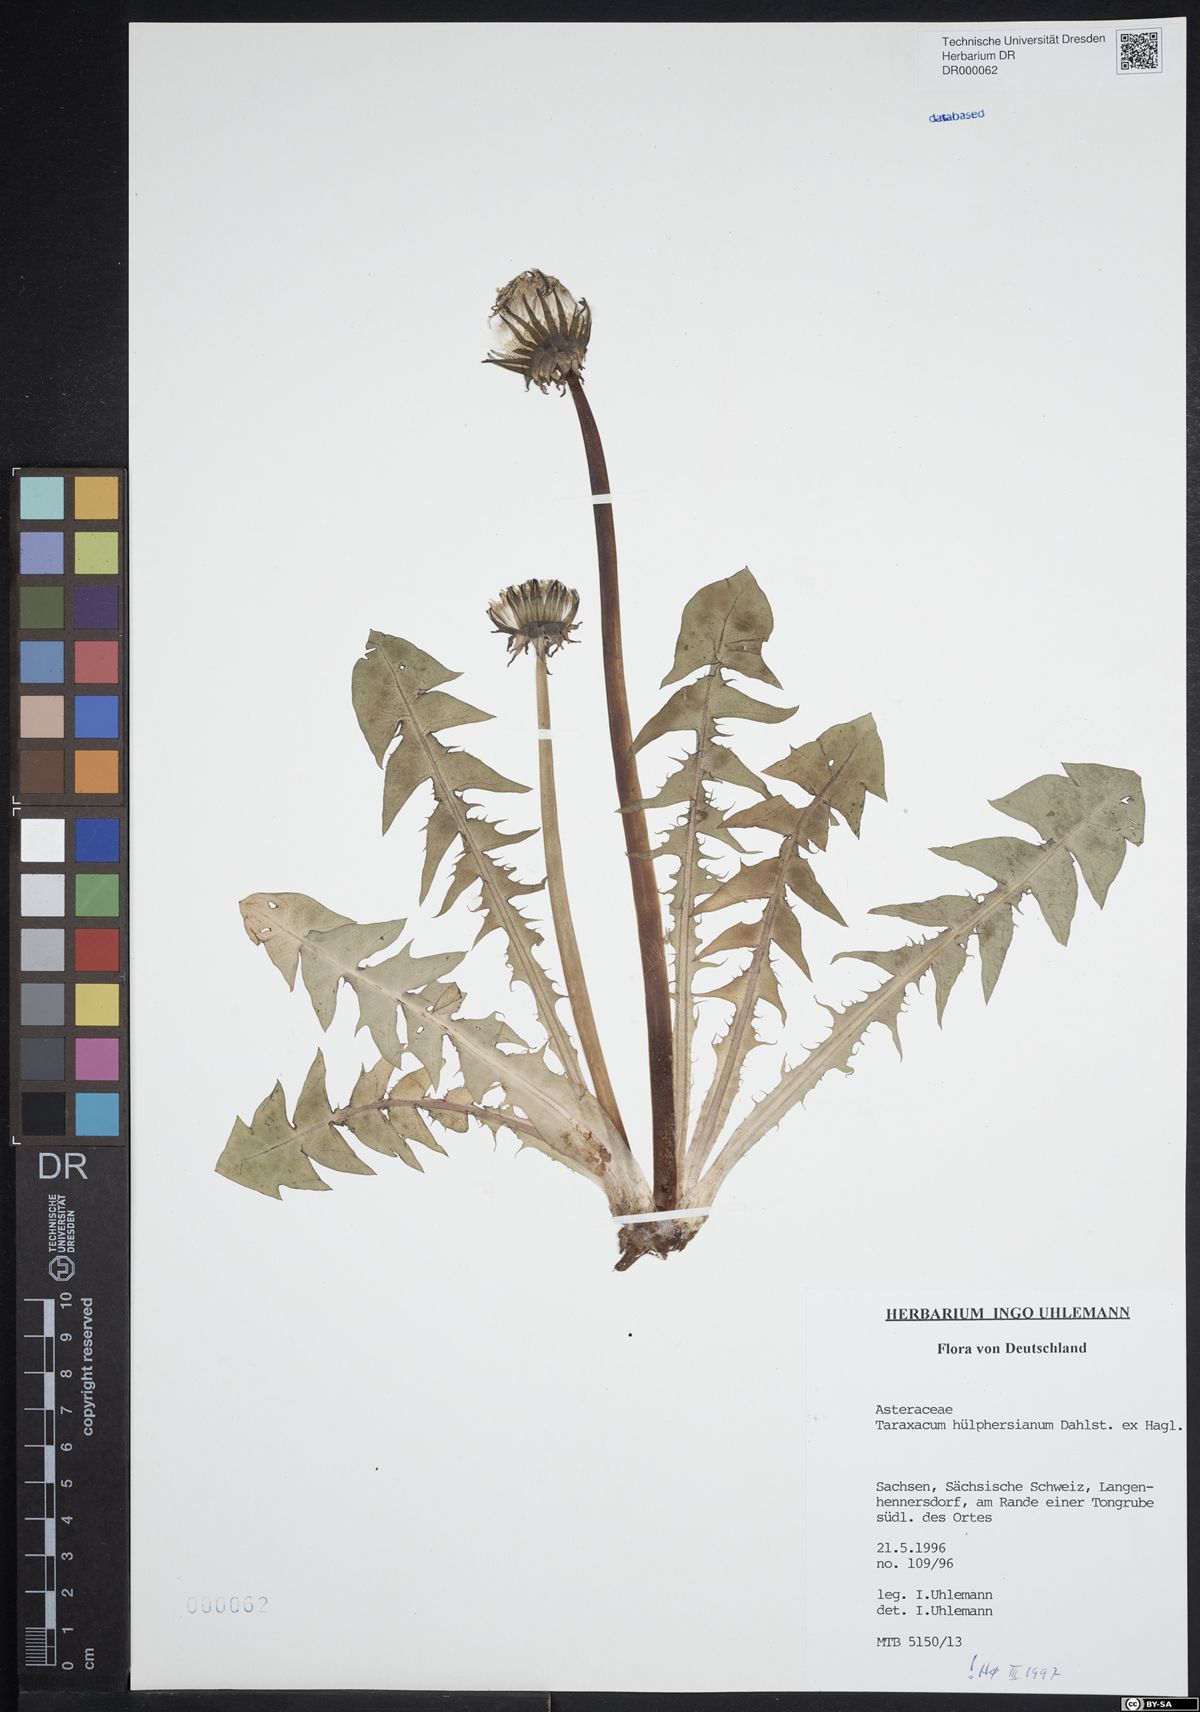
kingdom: Plantae
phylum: Tracheophyta
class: Magnoliopsida
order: Asterales
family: Asteraceae
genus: Taraxacum
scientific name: Taraxacum huelphersianum
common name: Hülphers's dandelion
